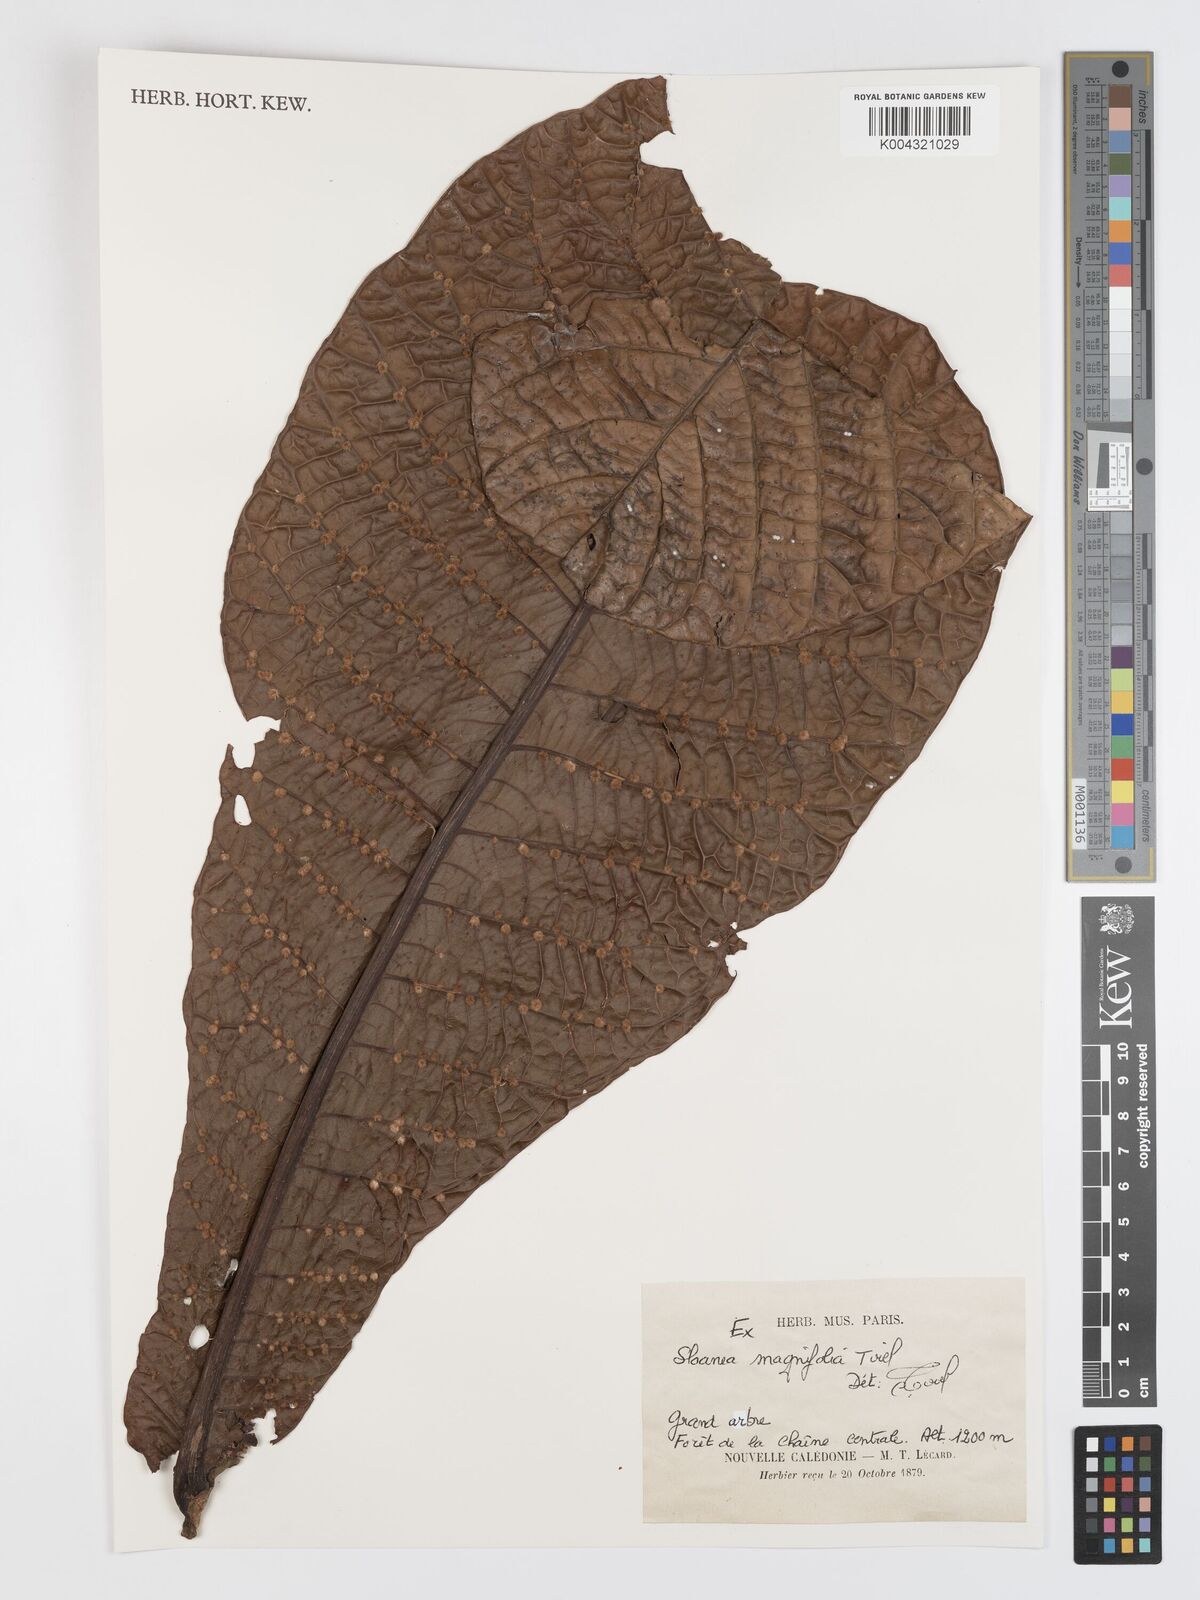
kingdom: Plantae
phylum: Tracheophyta
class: Magnoliopsida
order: Oxalidales
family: Elaeocarpaceae
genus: Sloanea
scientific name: Sloanea magnifolia
